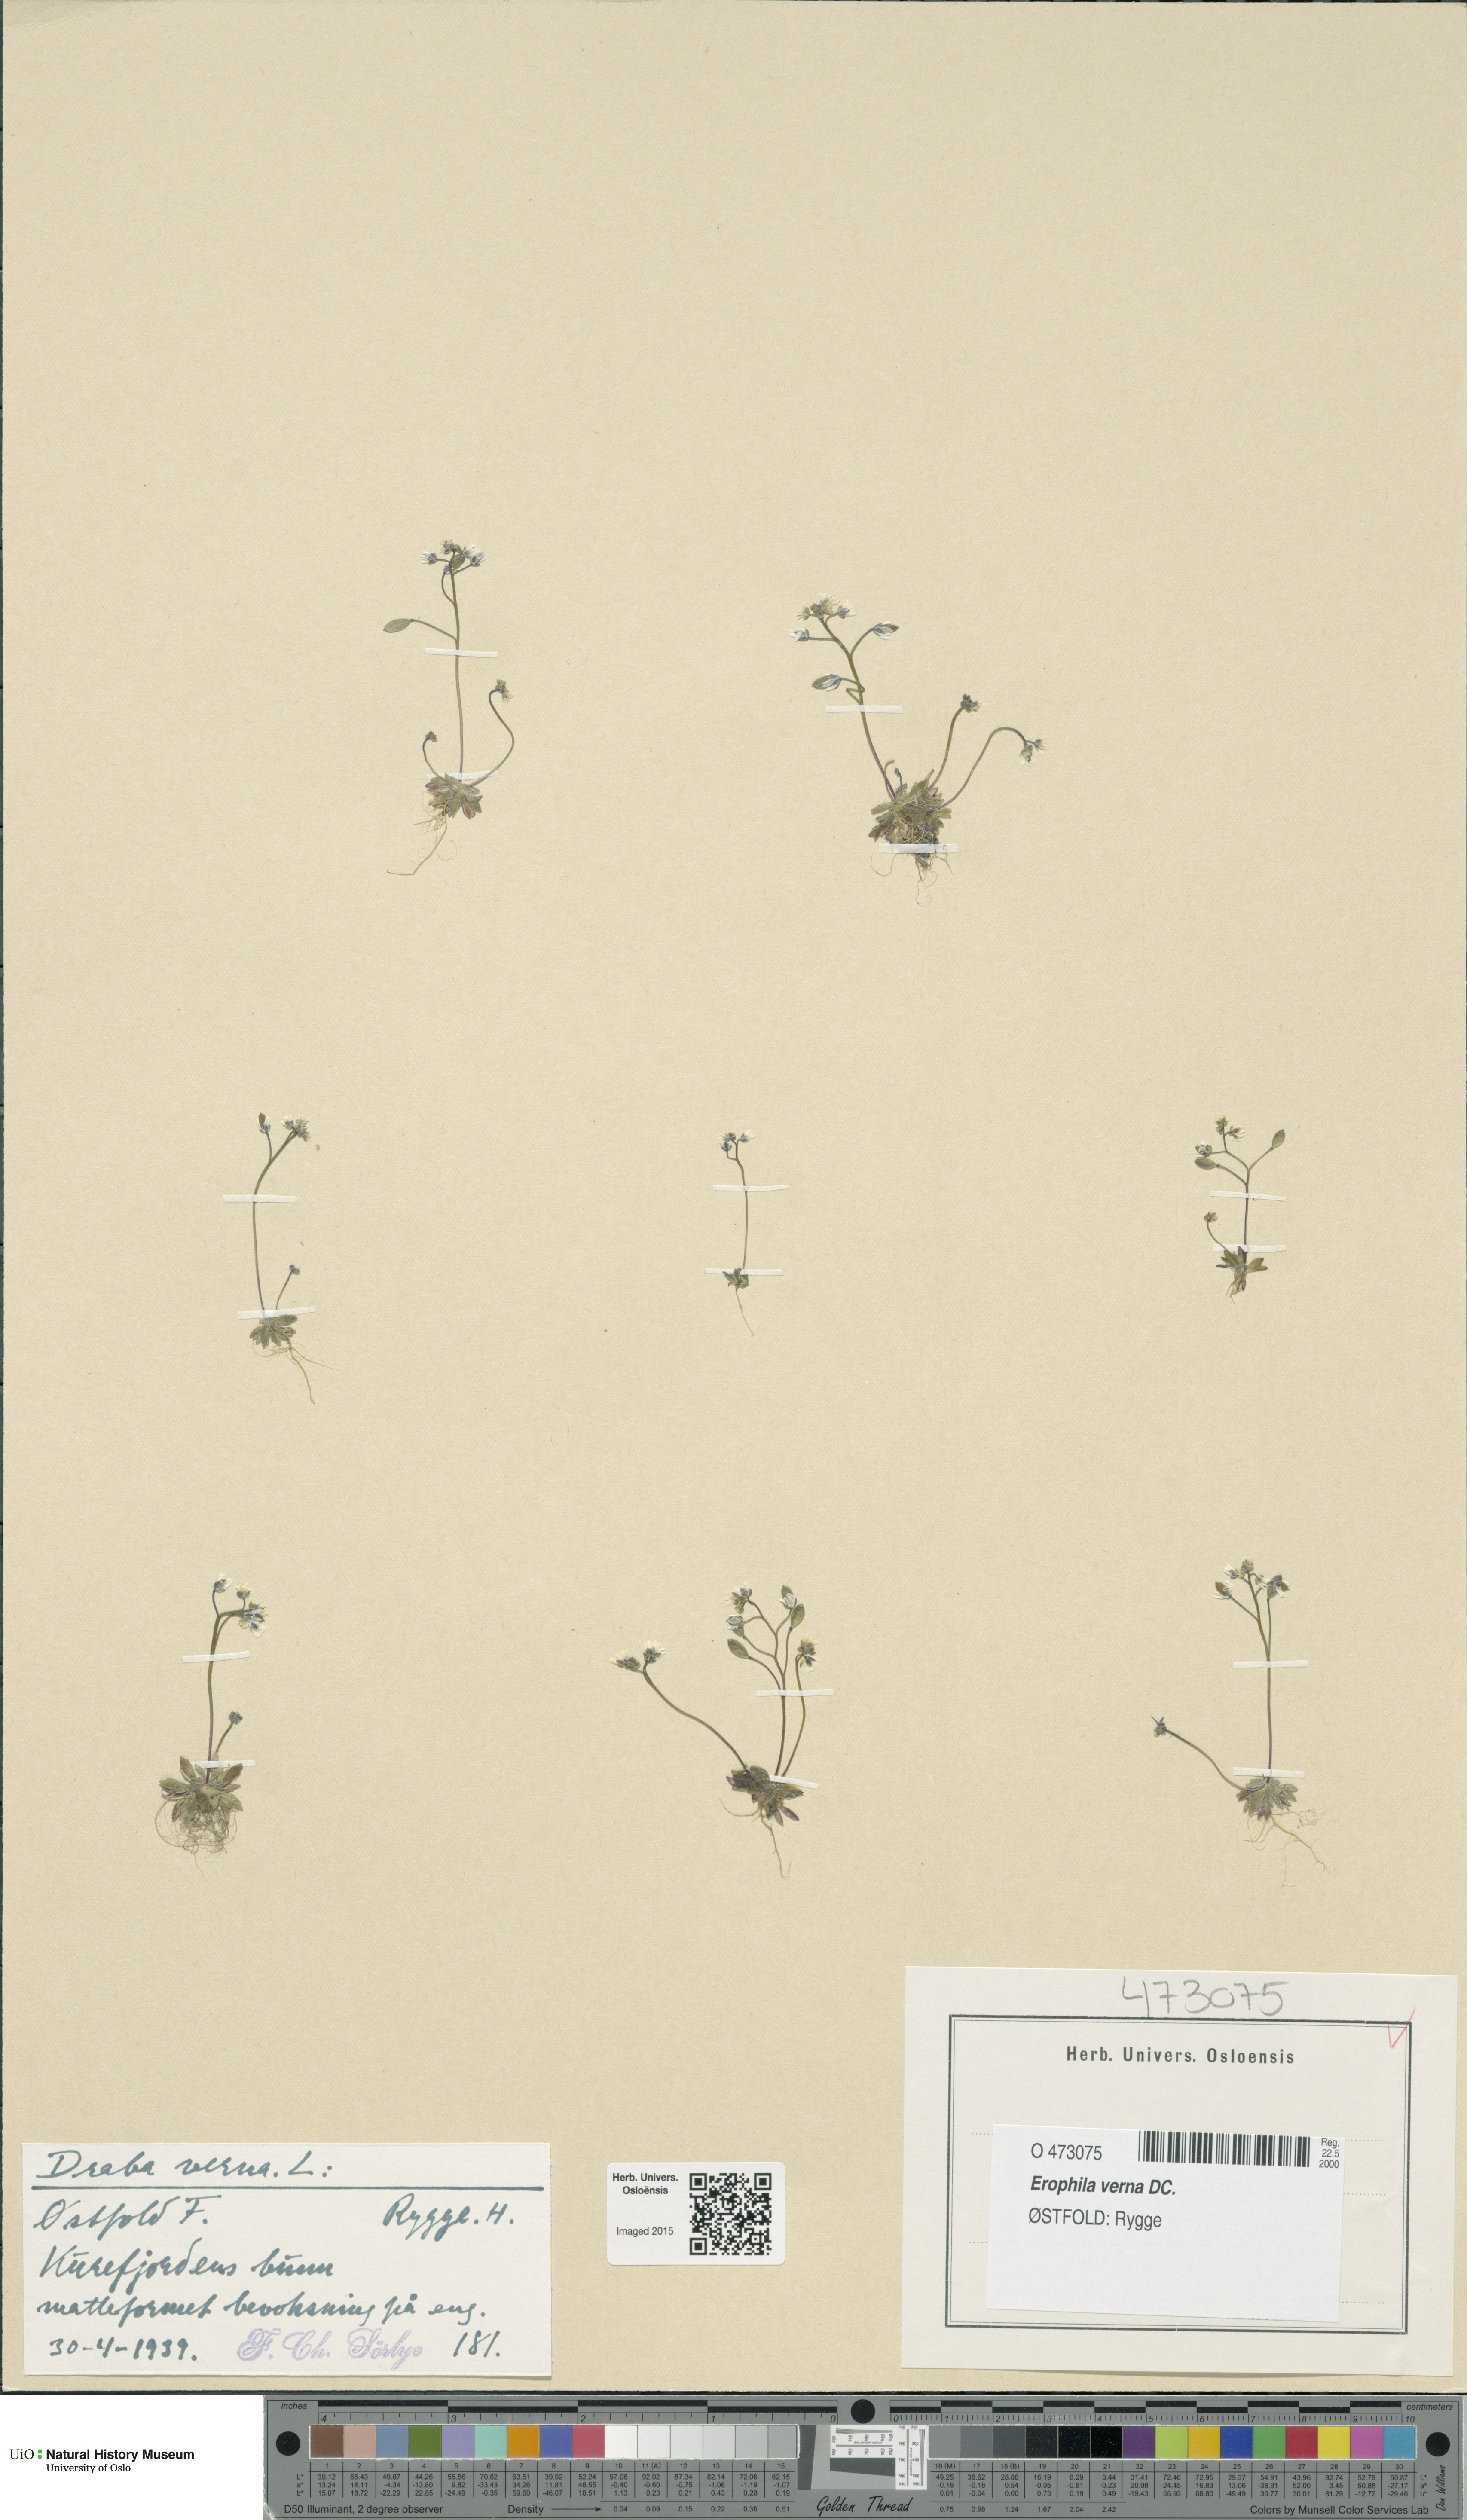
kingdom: Plantae
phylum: Tracheophyta
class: Magnoliopsida
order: Brassicales
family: Brassicaceae
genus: Draba
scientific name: Draba verna
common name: Spring draba
